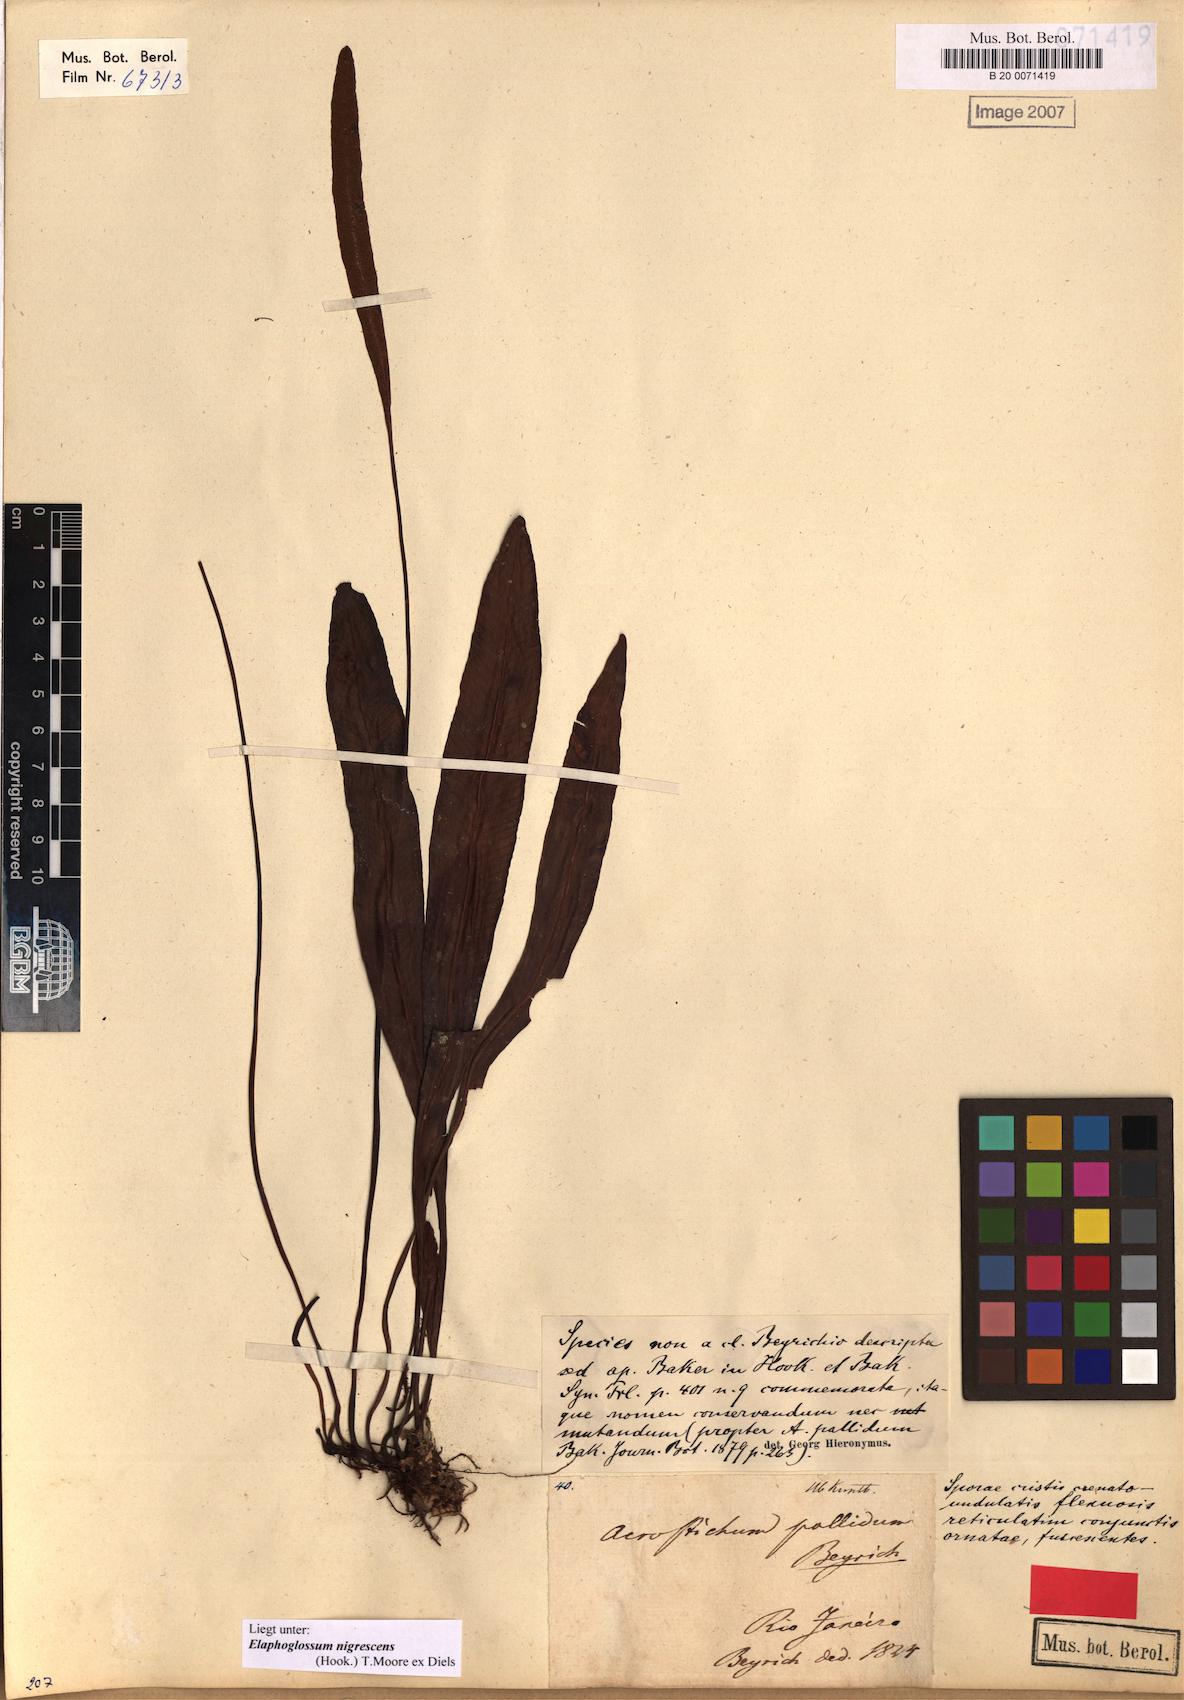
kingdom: Plantae
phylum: Tracheophyta
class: Polypodiopsida
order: Polypodiales
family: Dryopteridaceae
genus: Elaphoglossum
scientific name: Elaphoglossum nigrescens
